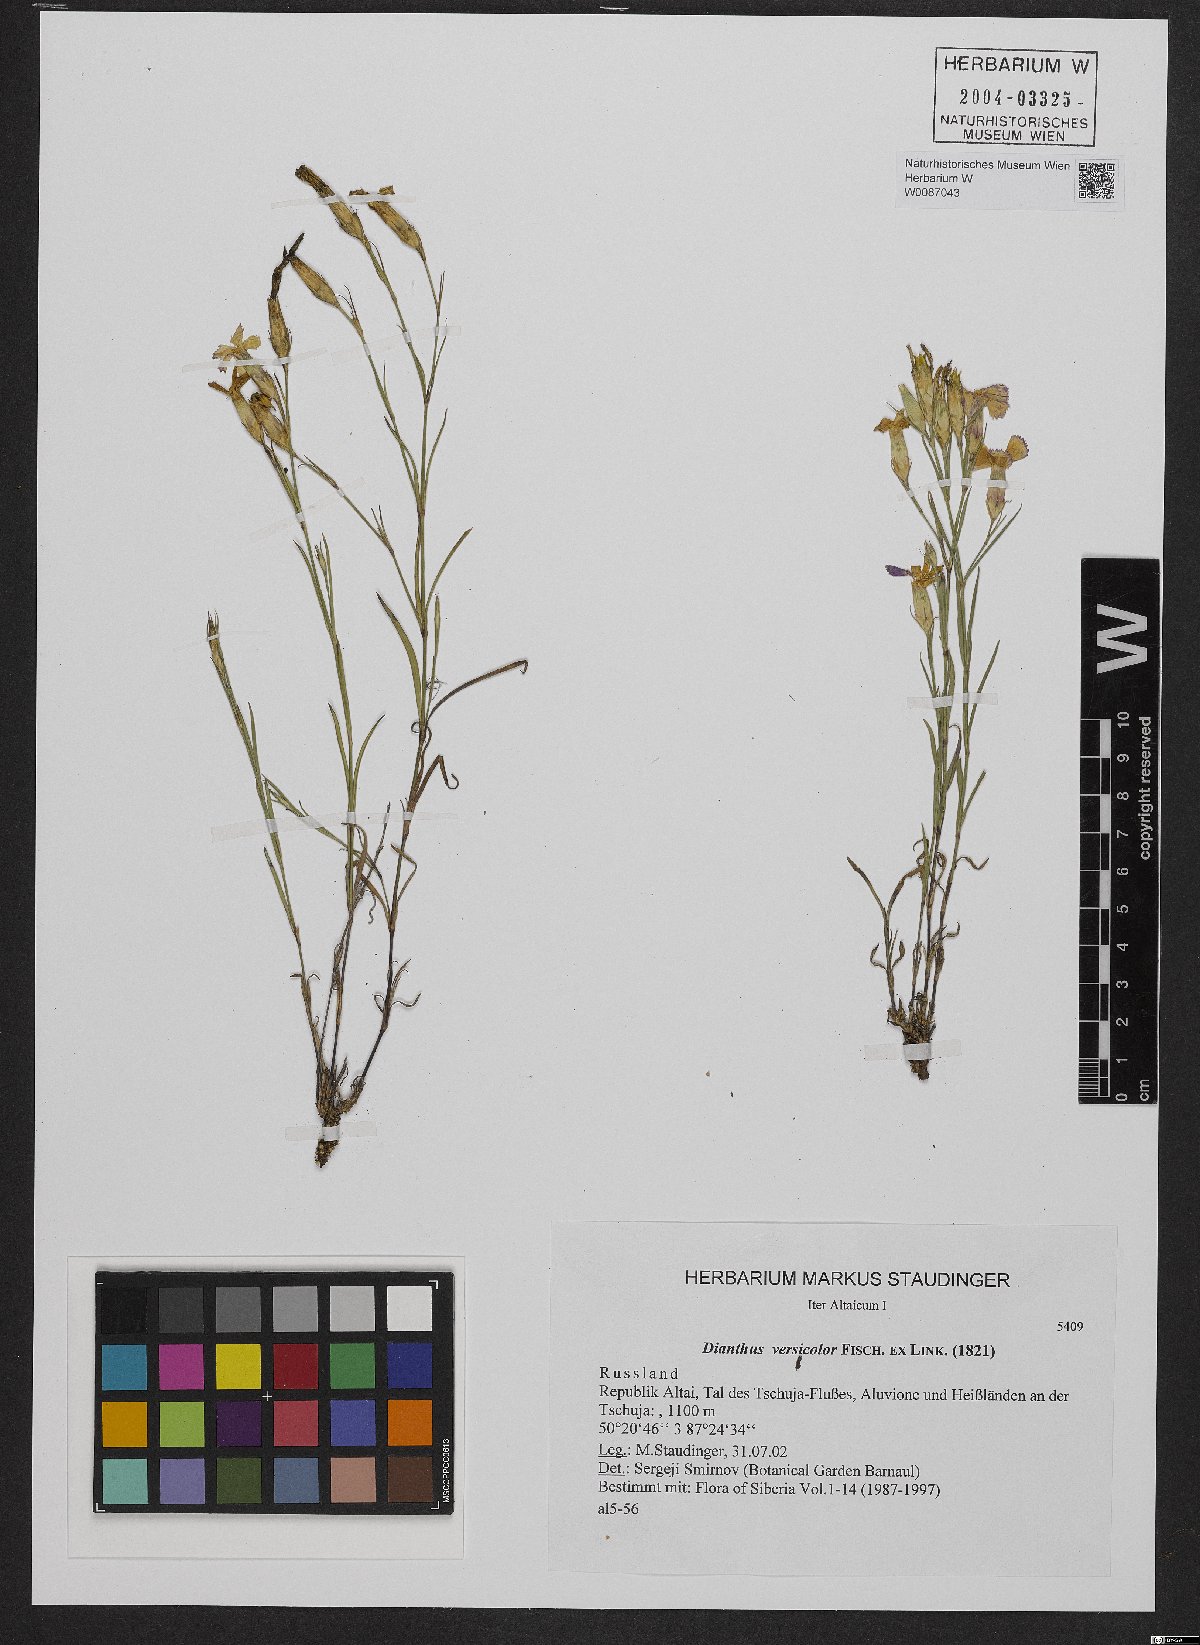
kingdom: Plantae
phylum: Tracheophyta
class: Magnoliopsida
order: Caryophyllales
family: Caryophyllaceae
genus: Dianthus
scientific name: Dianthus chinensis
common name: Rainbow pink
